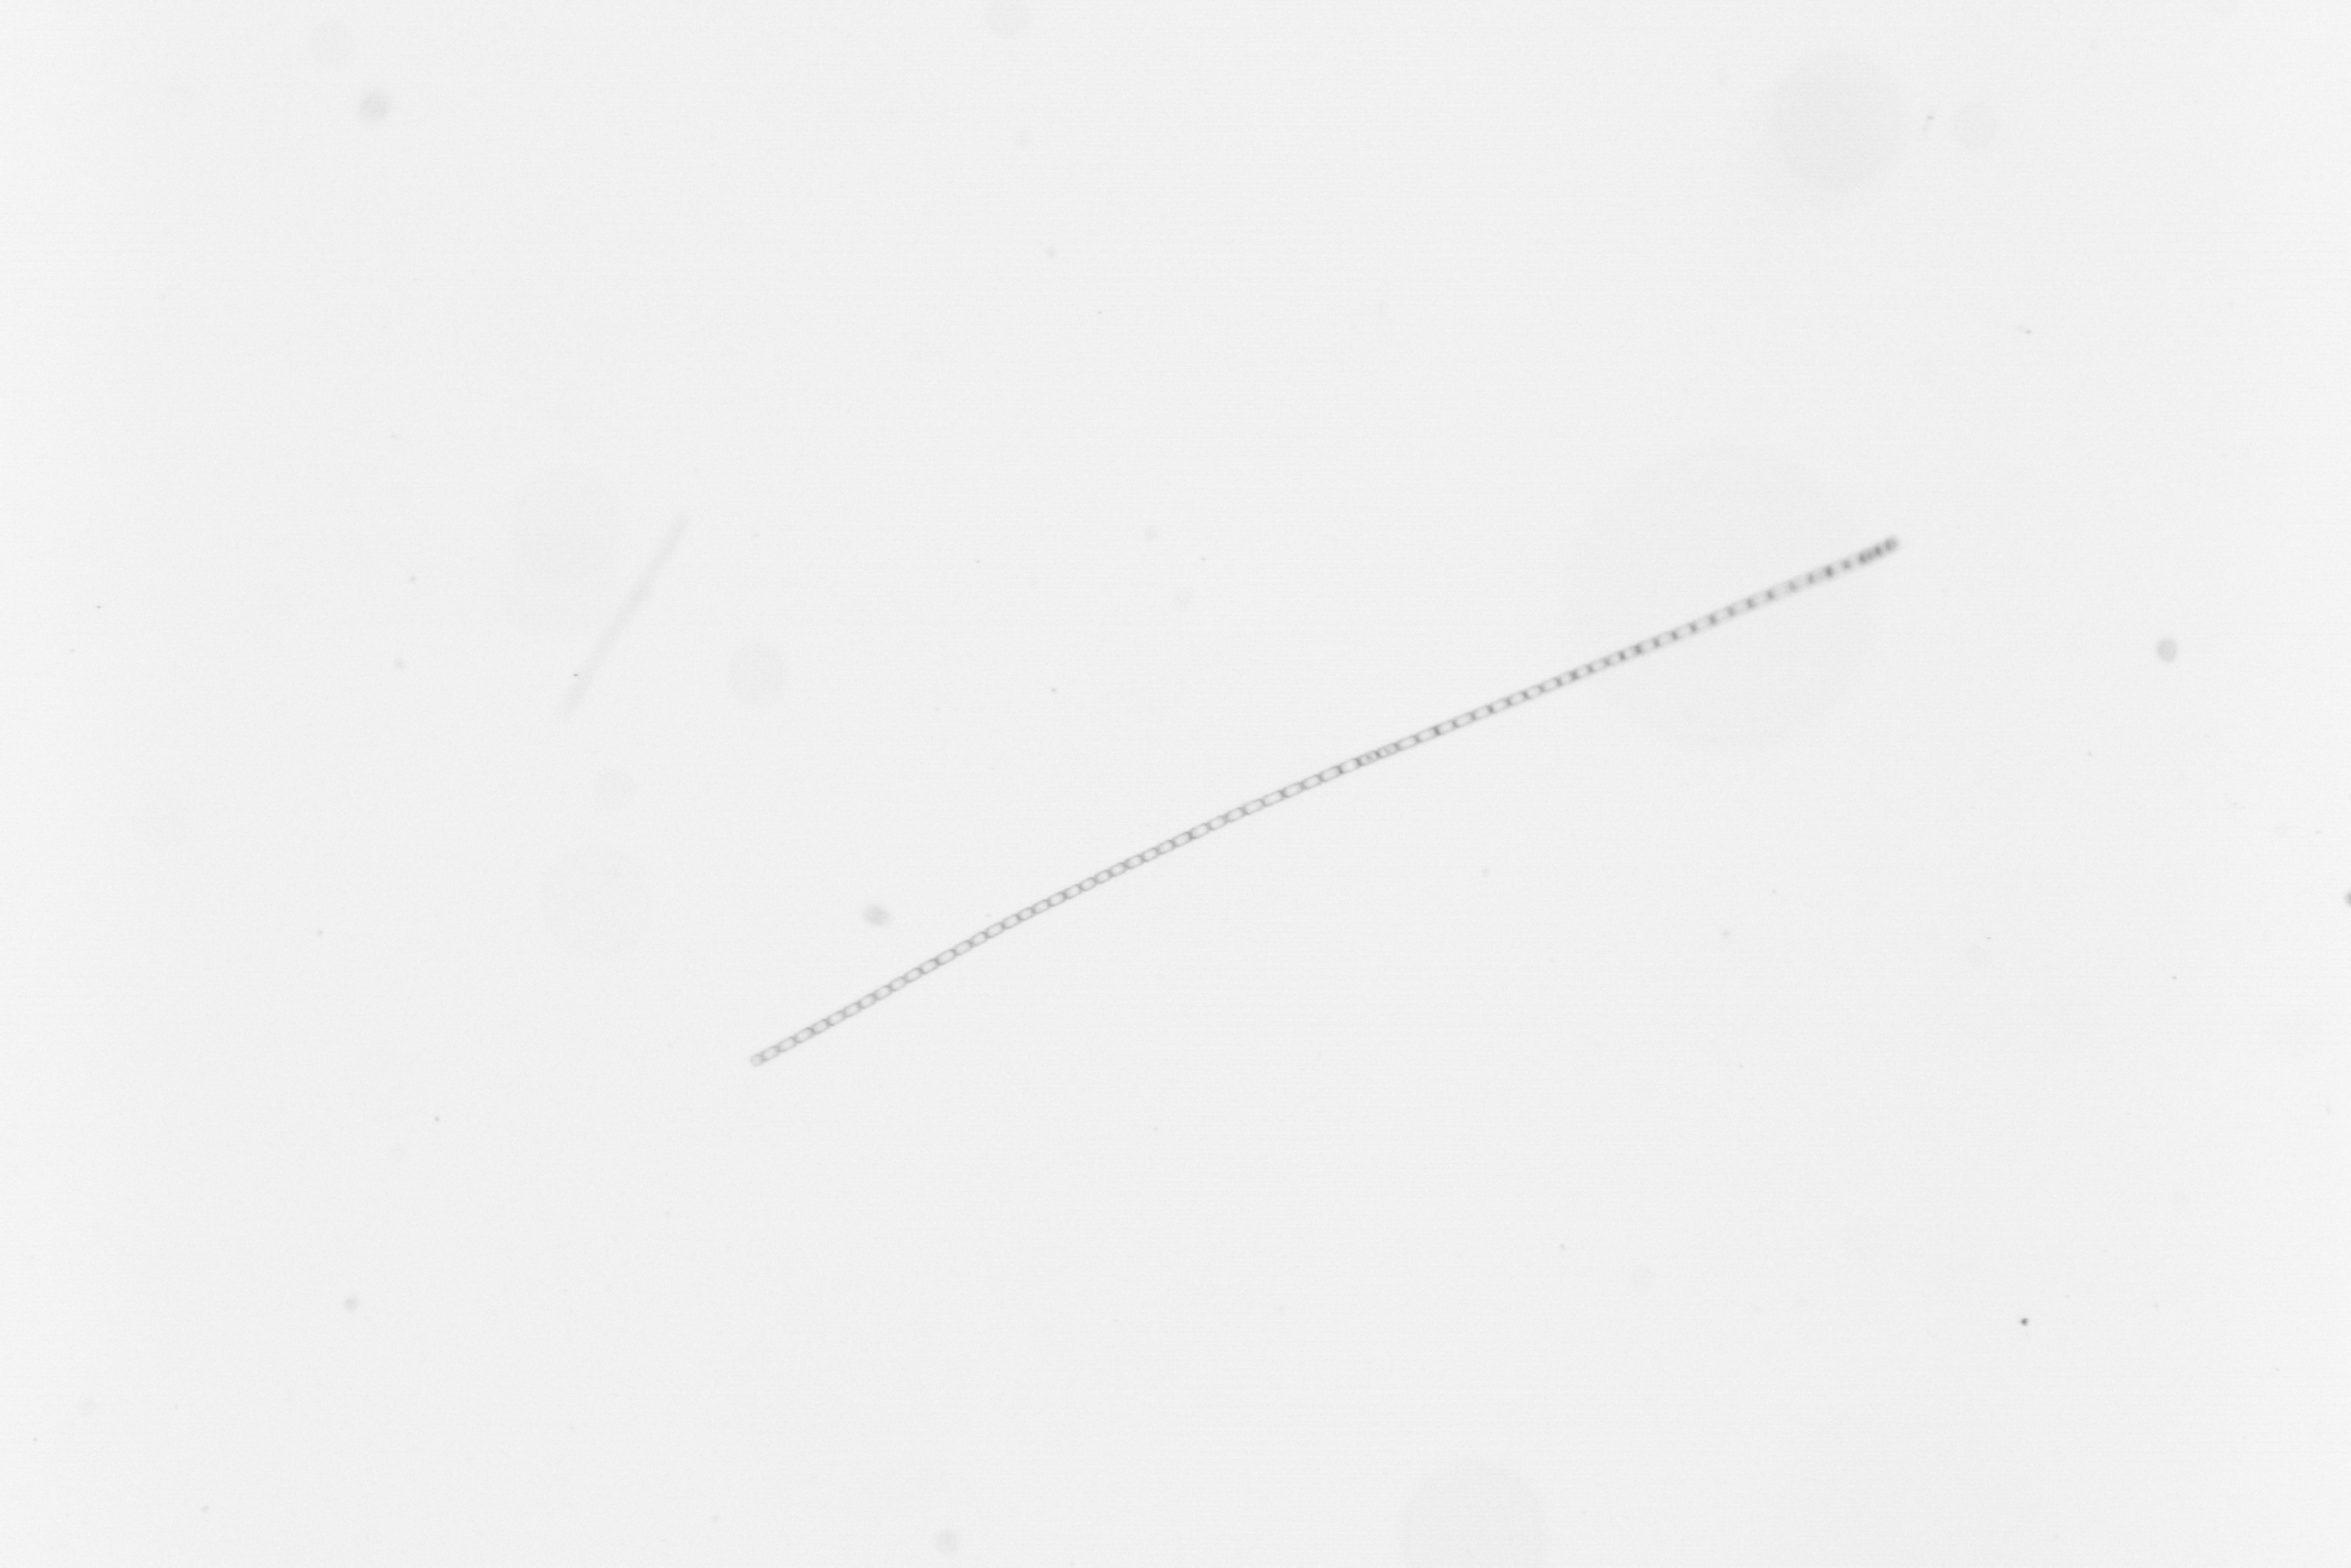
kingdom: Chromista
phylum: Ochrophyta
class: Bacillariophyceae
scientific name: Bacillariophyceae
